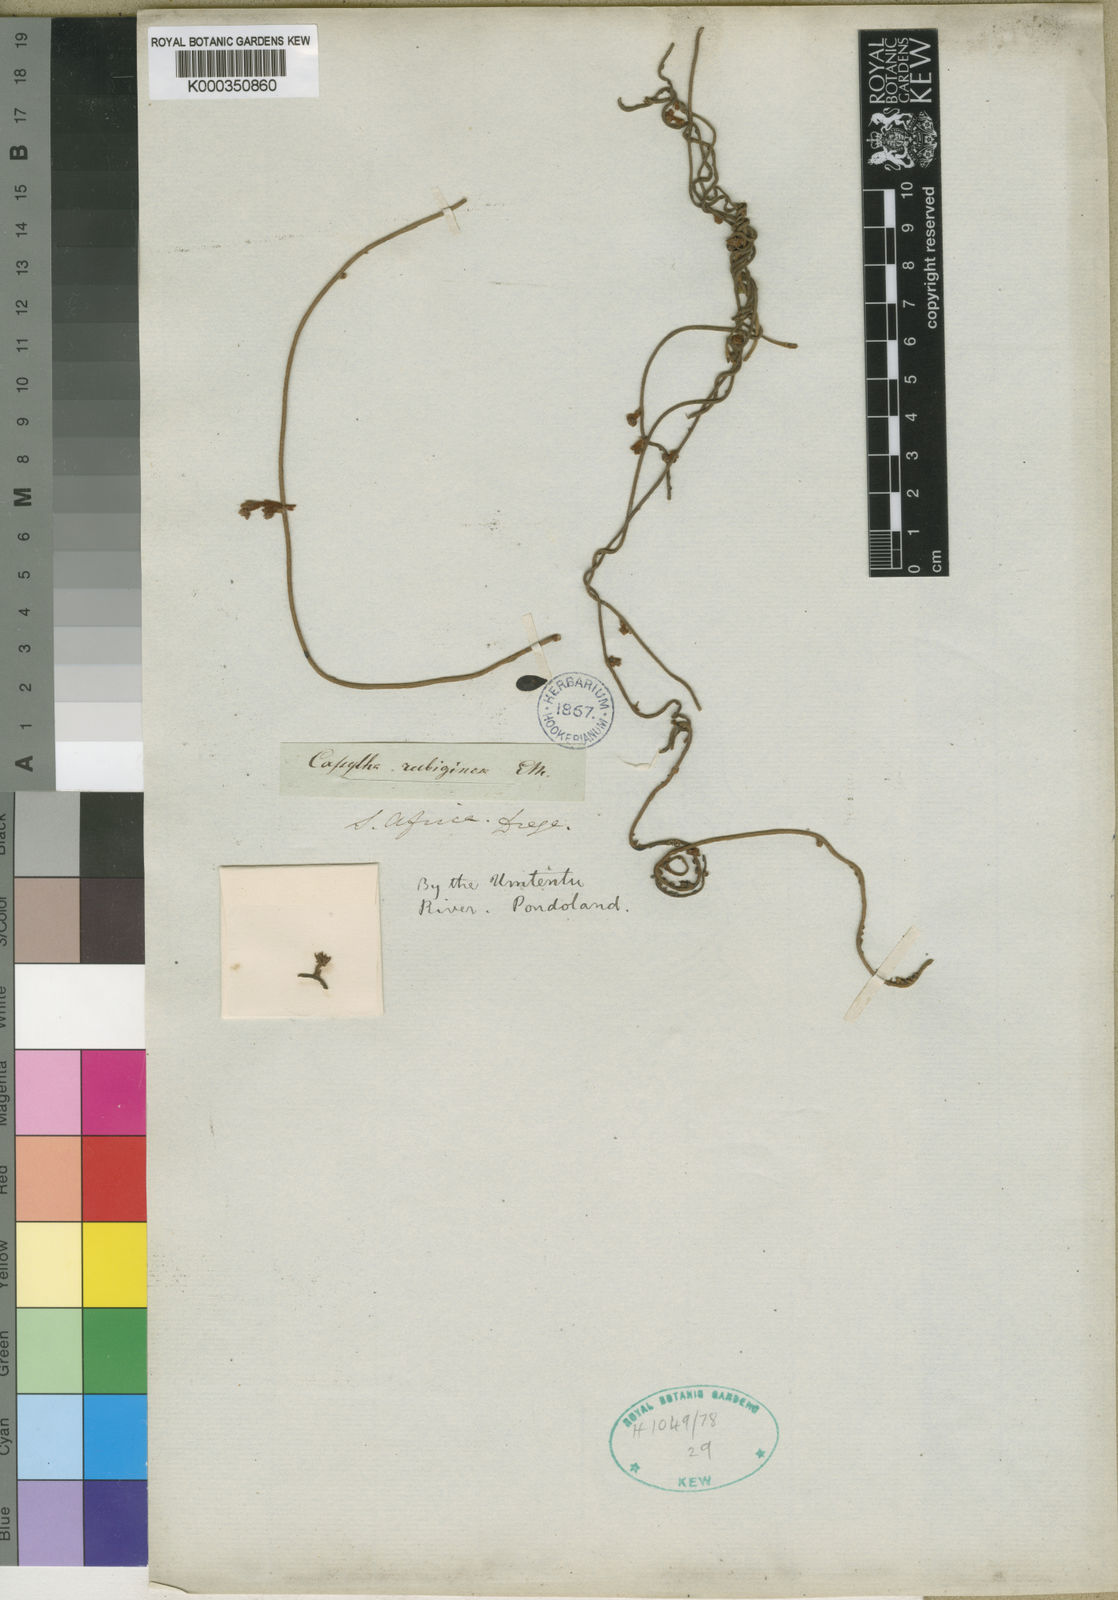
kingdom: Plantae
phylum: Tracheophyta
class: Magnoliopsida
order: Laurales
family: Lauraceae
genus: Cassytha
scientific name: Cassytha pondoensis
